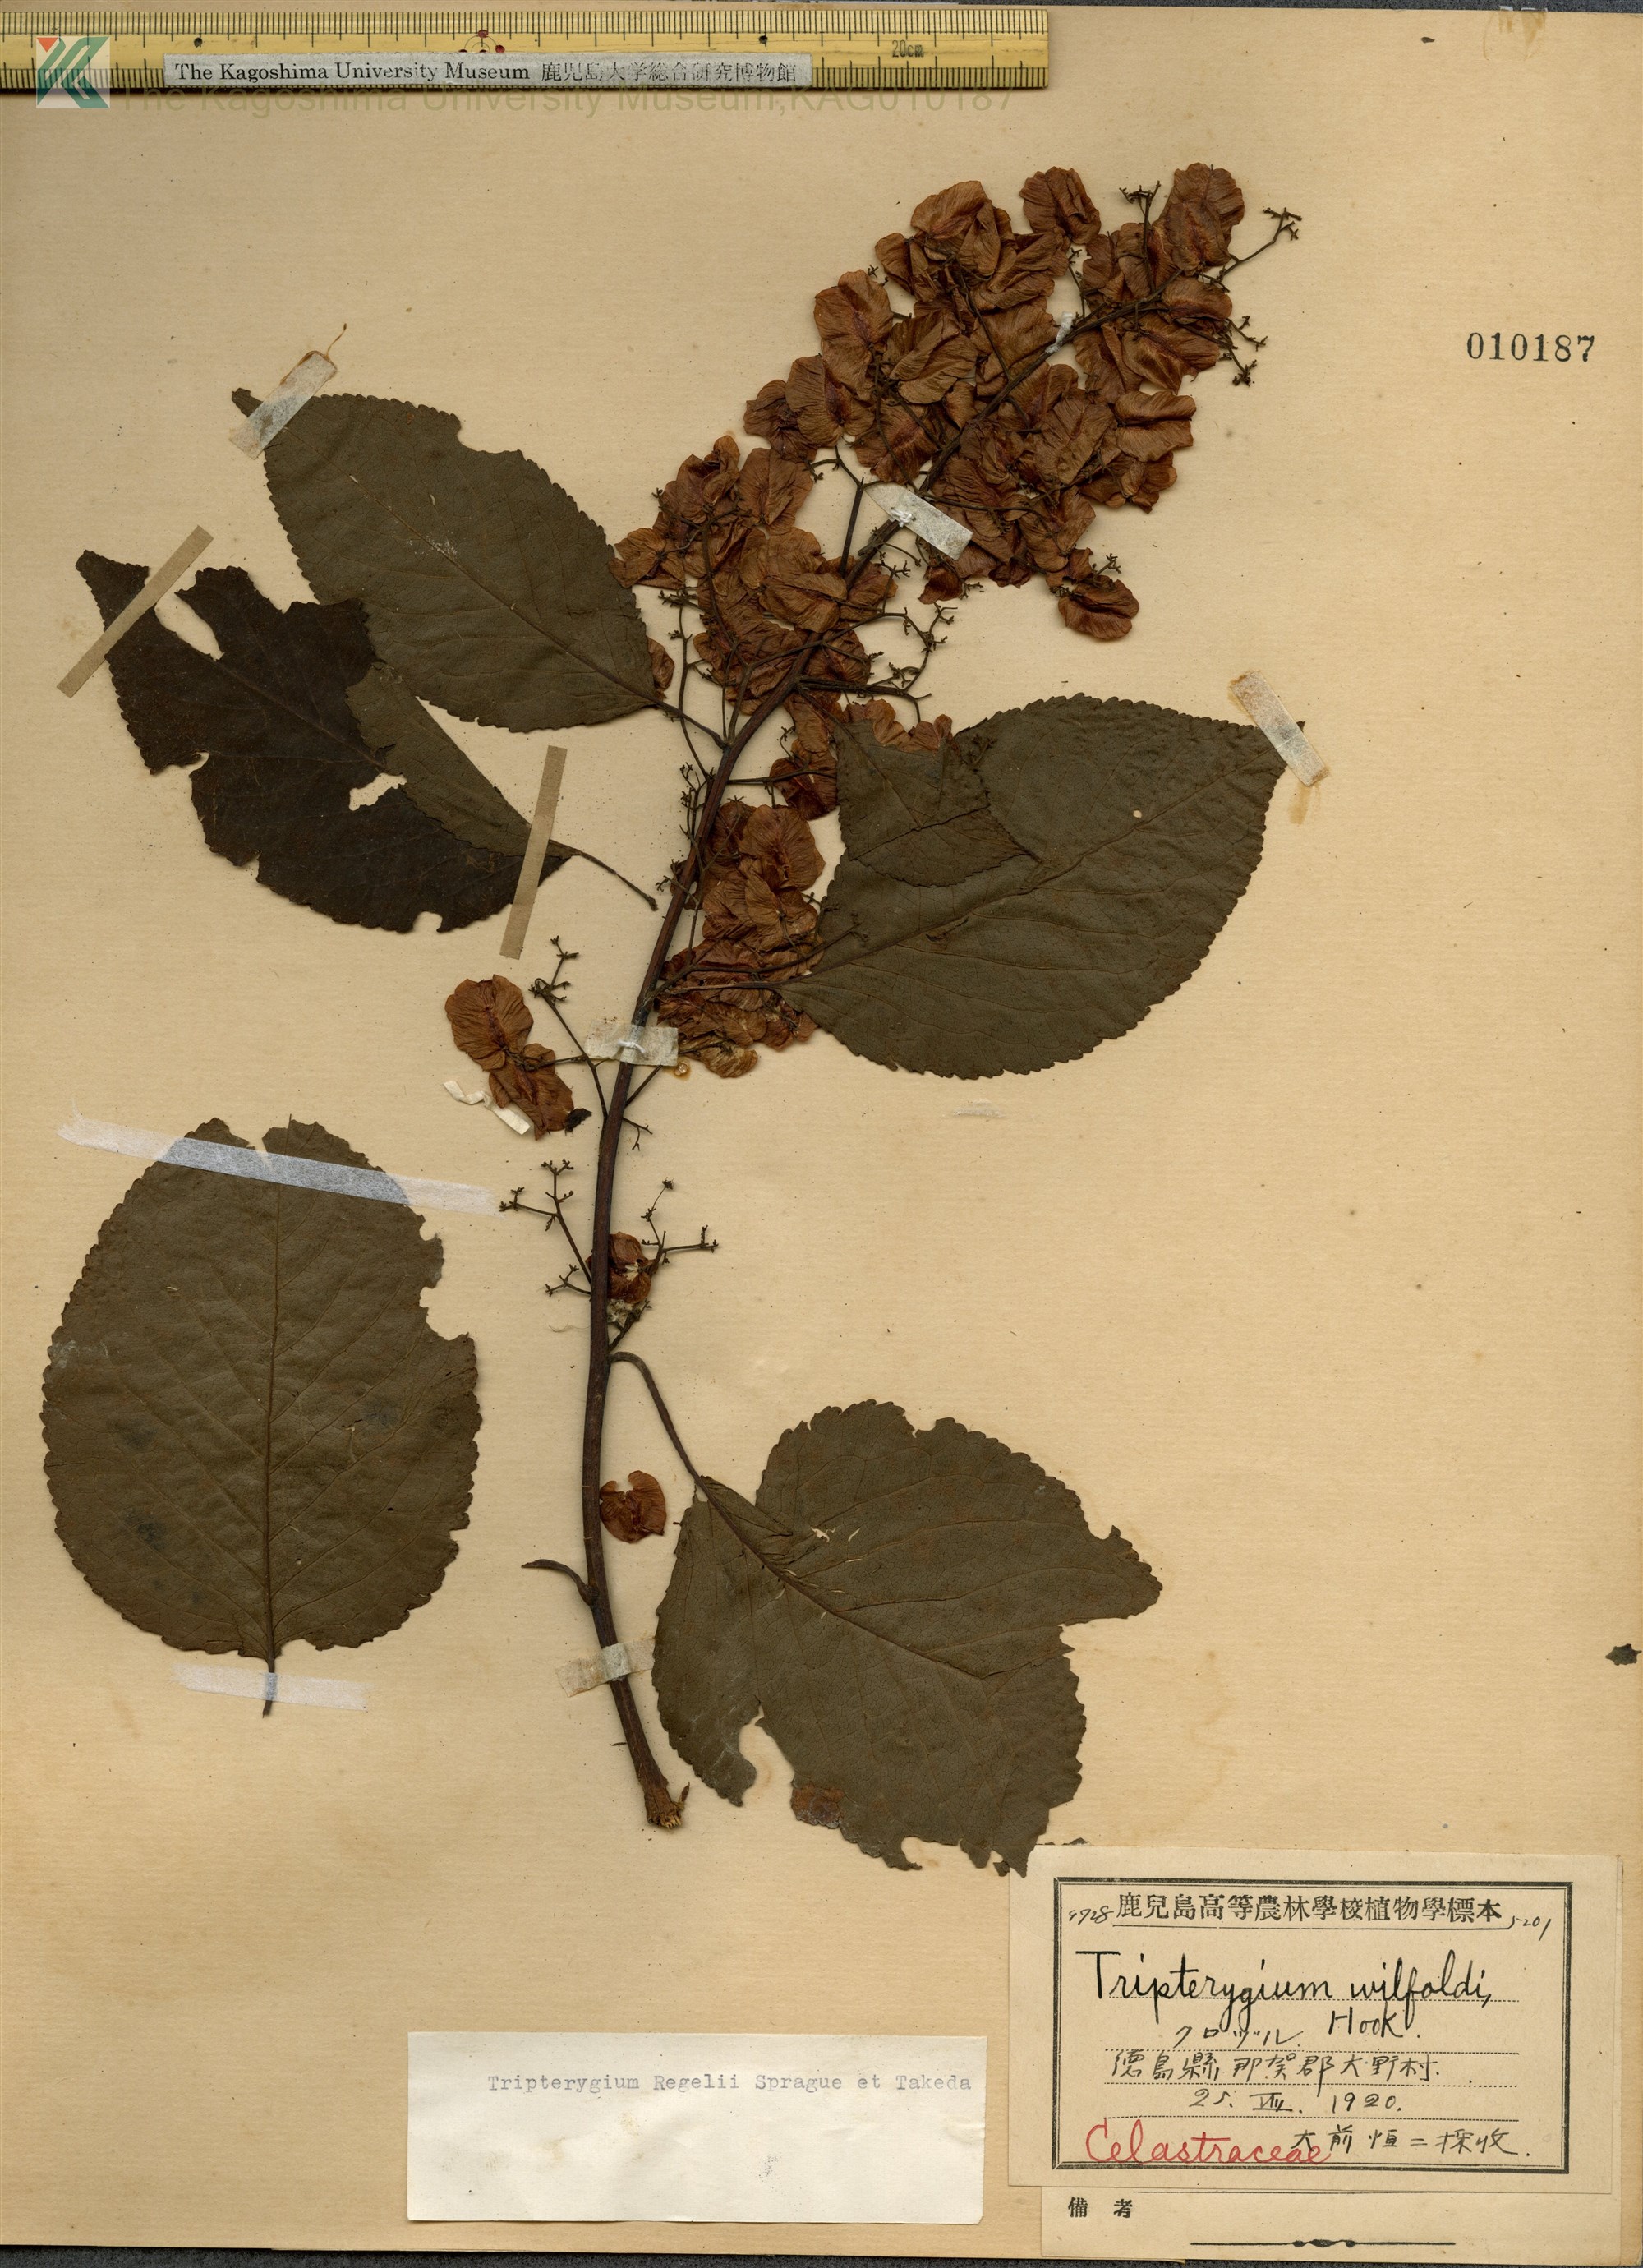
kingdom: Plantae
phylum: Tracheophyta
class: Magnoliopsida
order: Celastrales
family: Celastraceae
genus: Tripterygium
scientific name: Tripterygium wilfordii
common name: クロヅル
